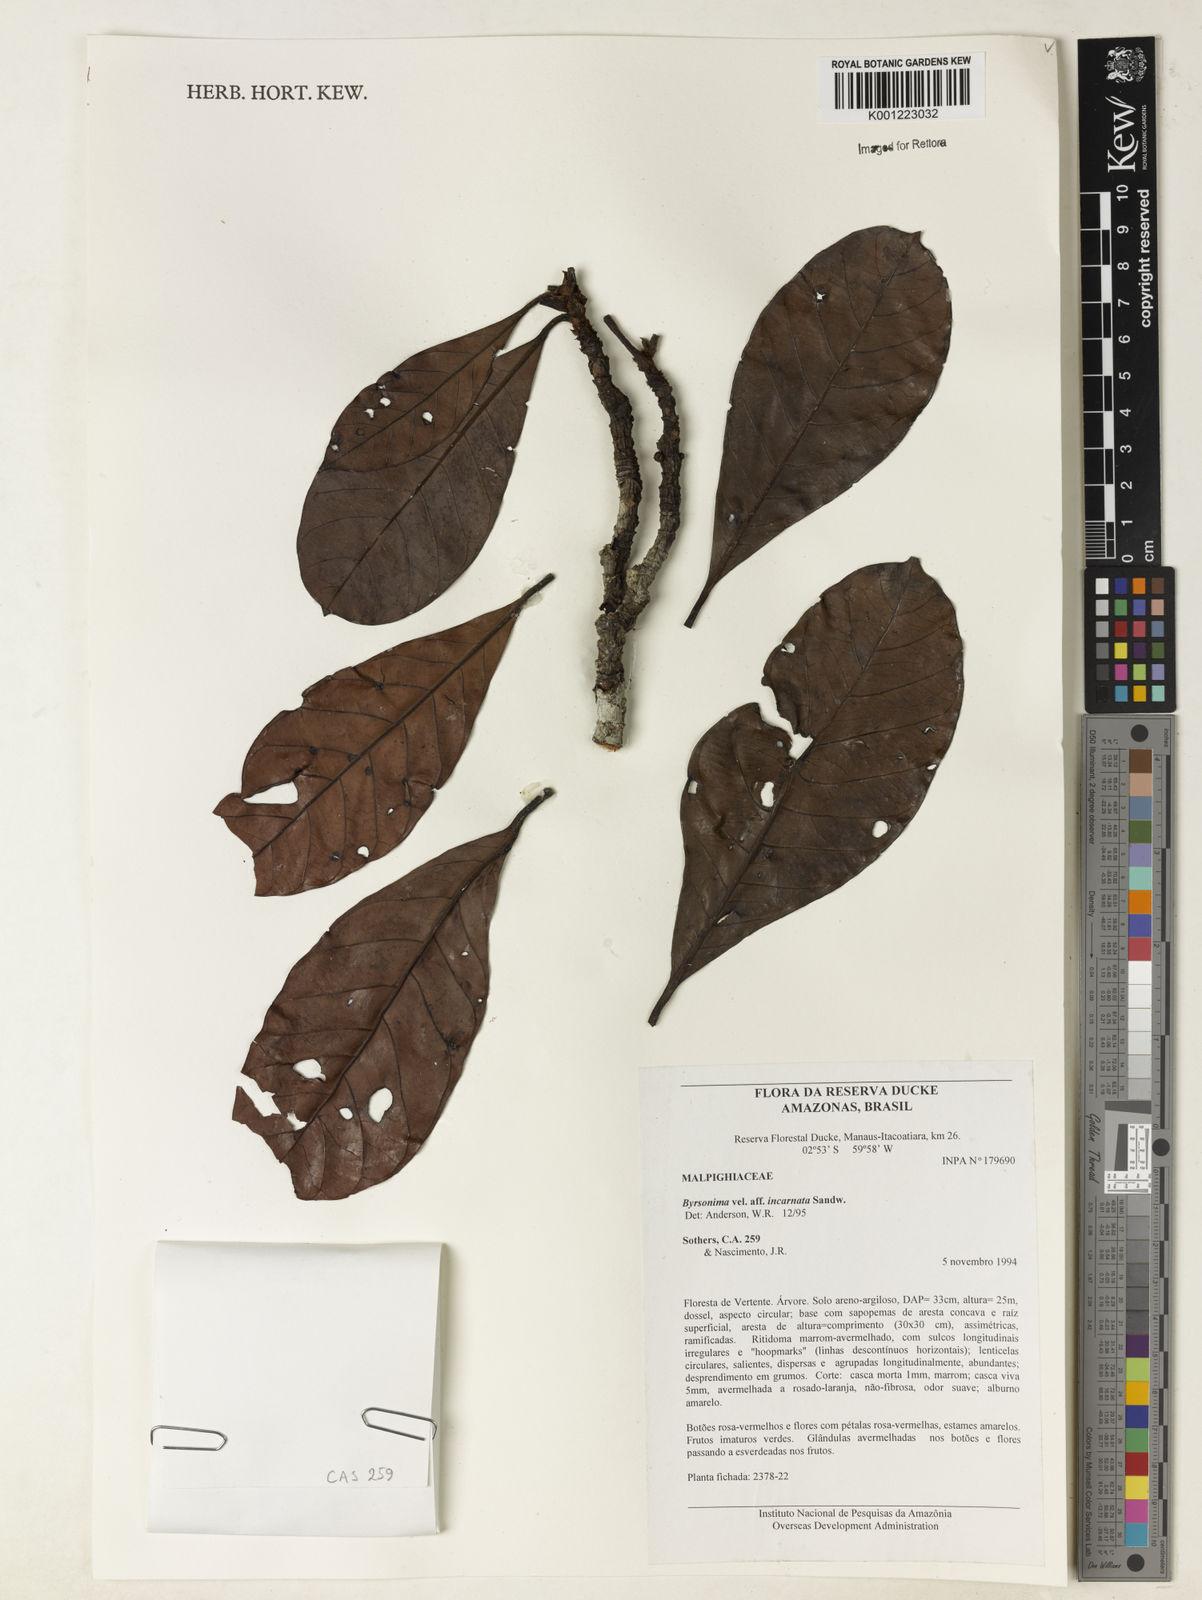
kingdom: Plantae
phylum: Tracheophyta
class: Magnoliopsida
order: Malpighiales
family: Malpighiaceae
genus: Byrsonima
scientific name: Byrsonima incarnata
